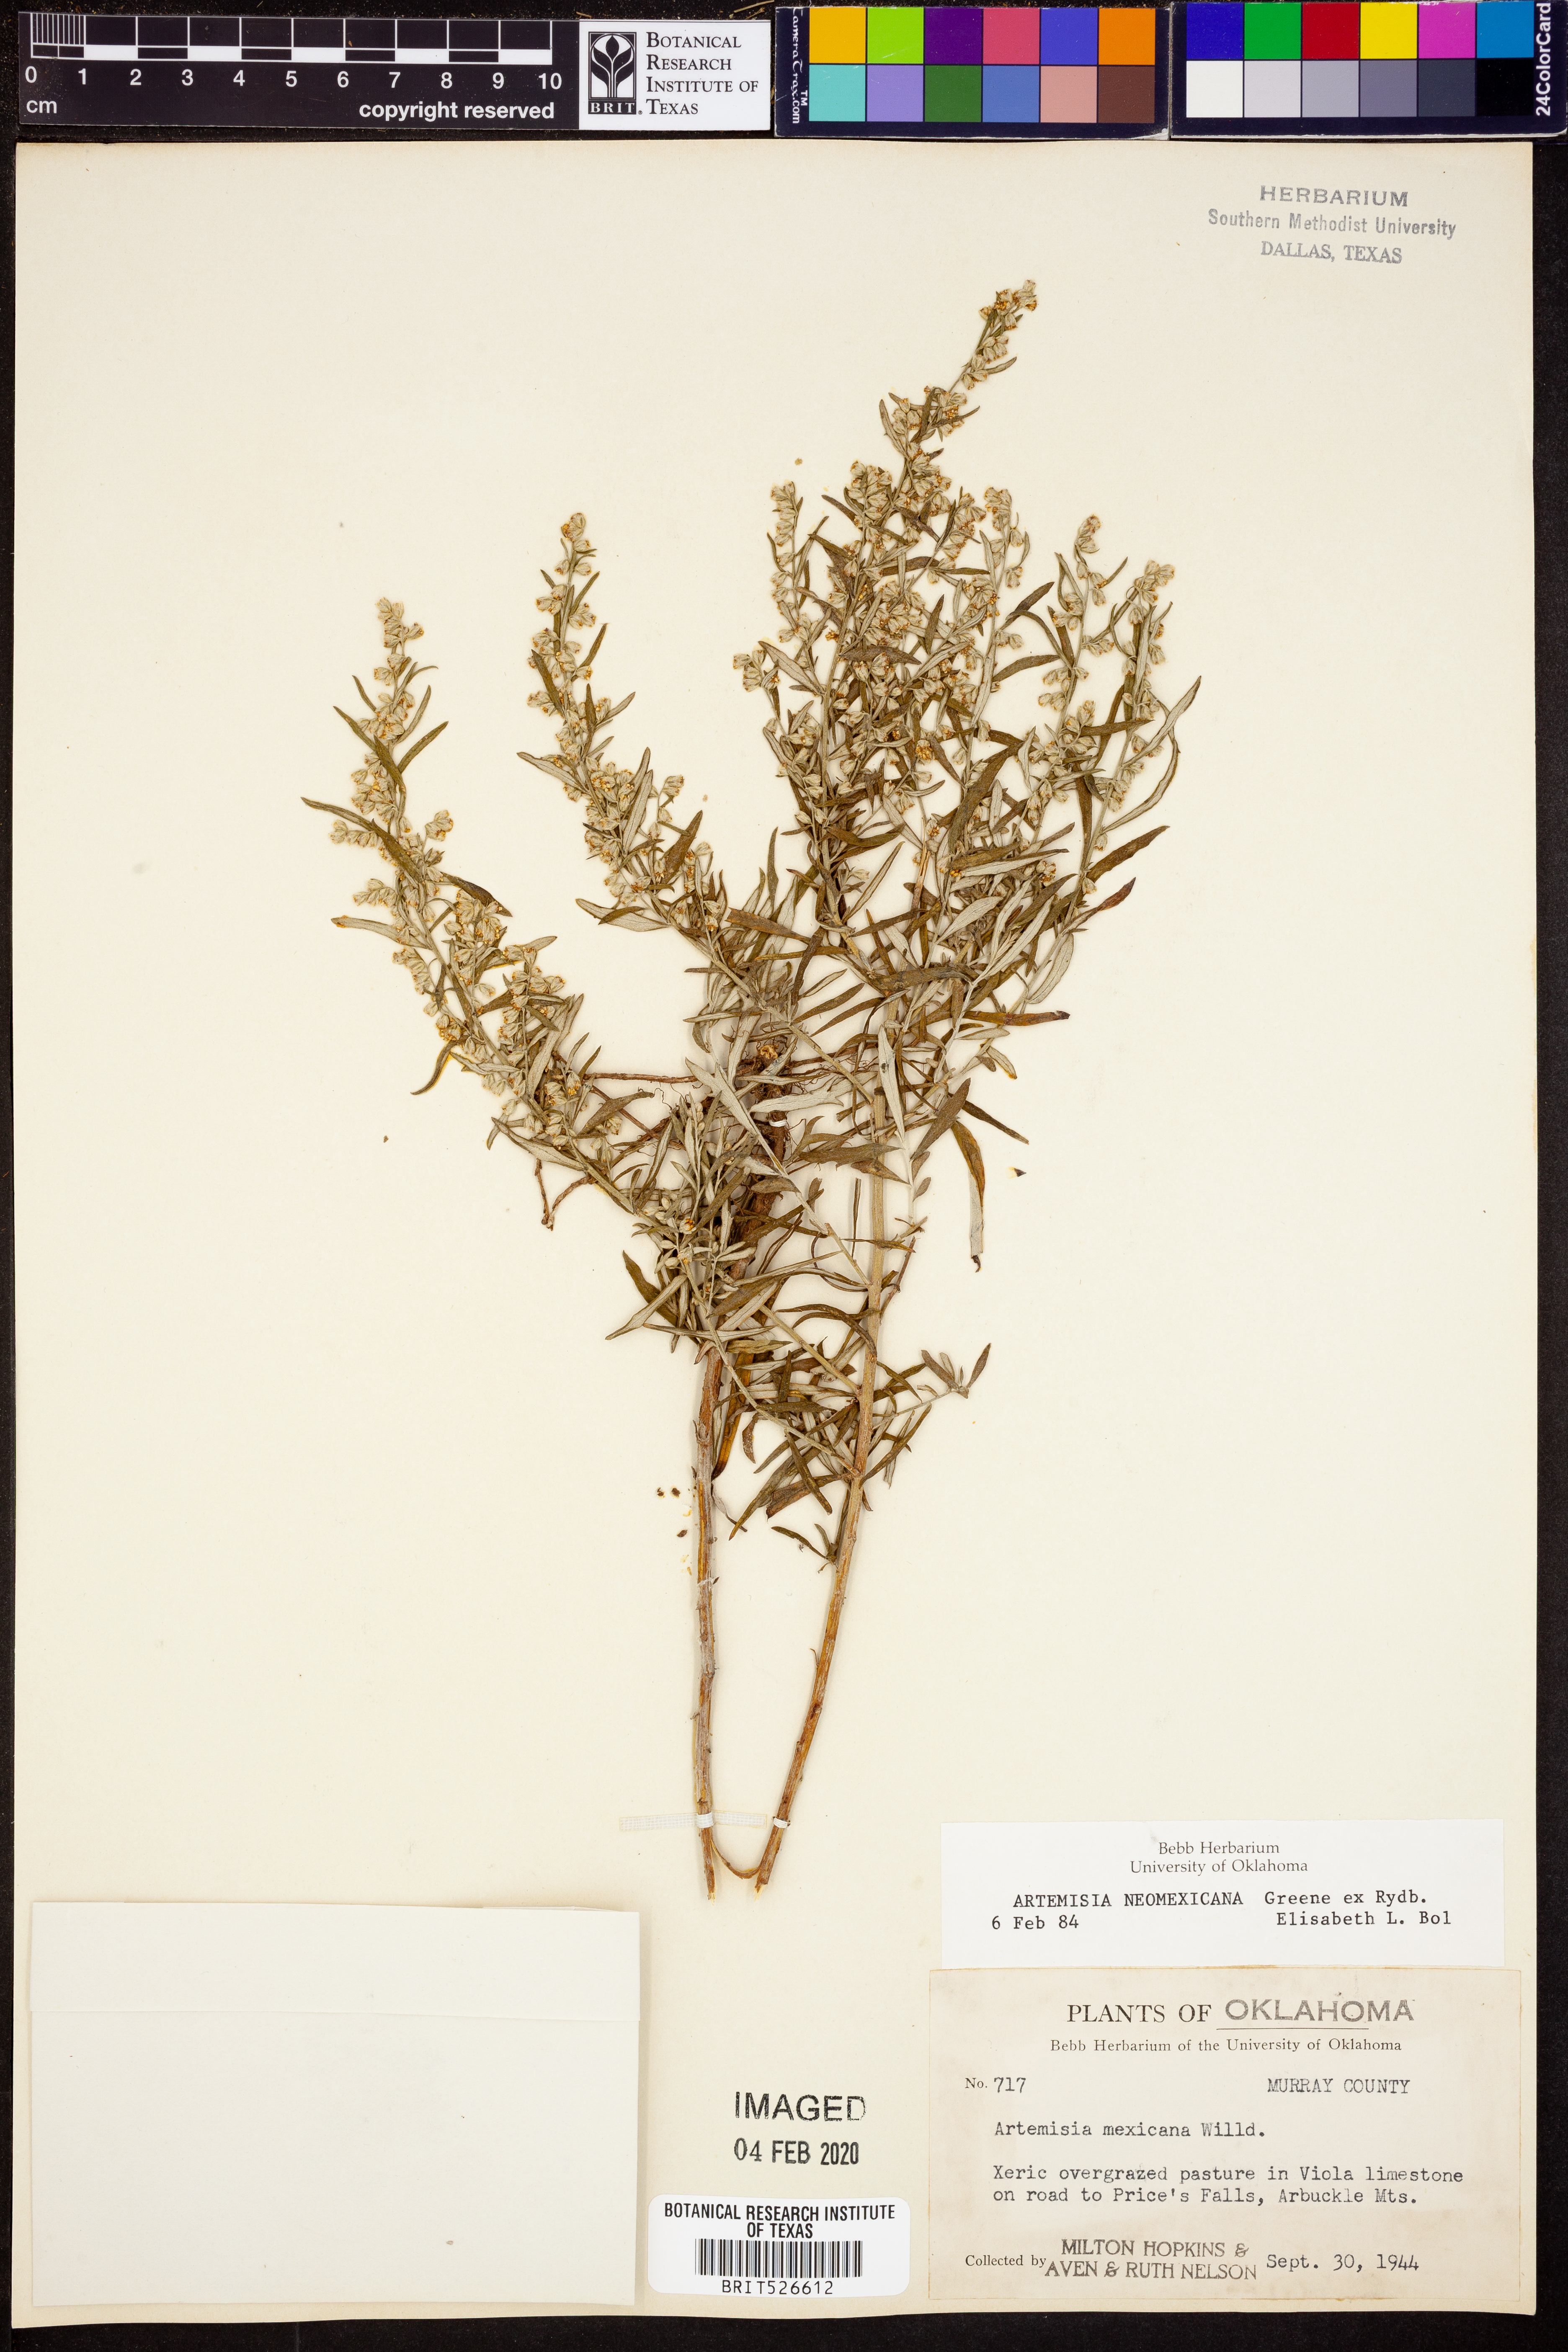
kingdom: Plantae
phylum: Tracheophyta
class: Magnoliopsida
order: Asterales
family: Asteraceae
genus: Artemisia
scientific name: Artemisia ludoviciana
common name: Western mugwort
